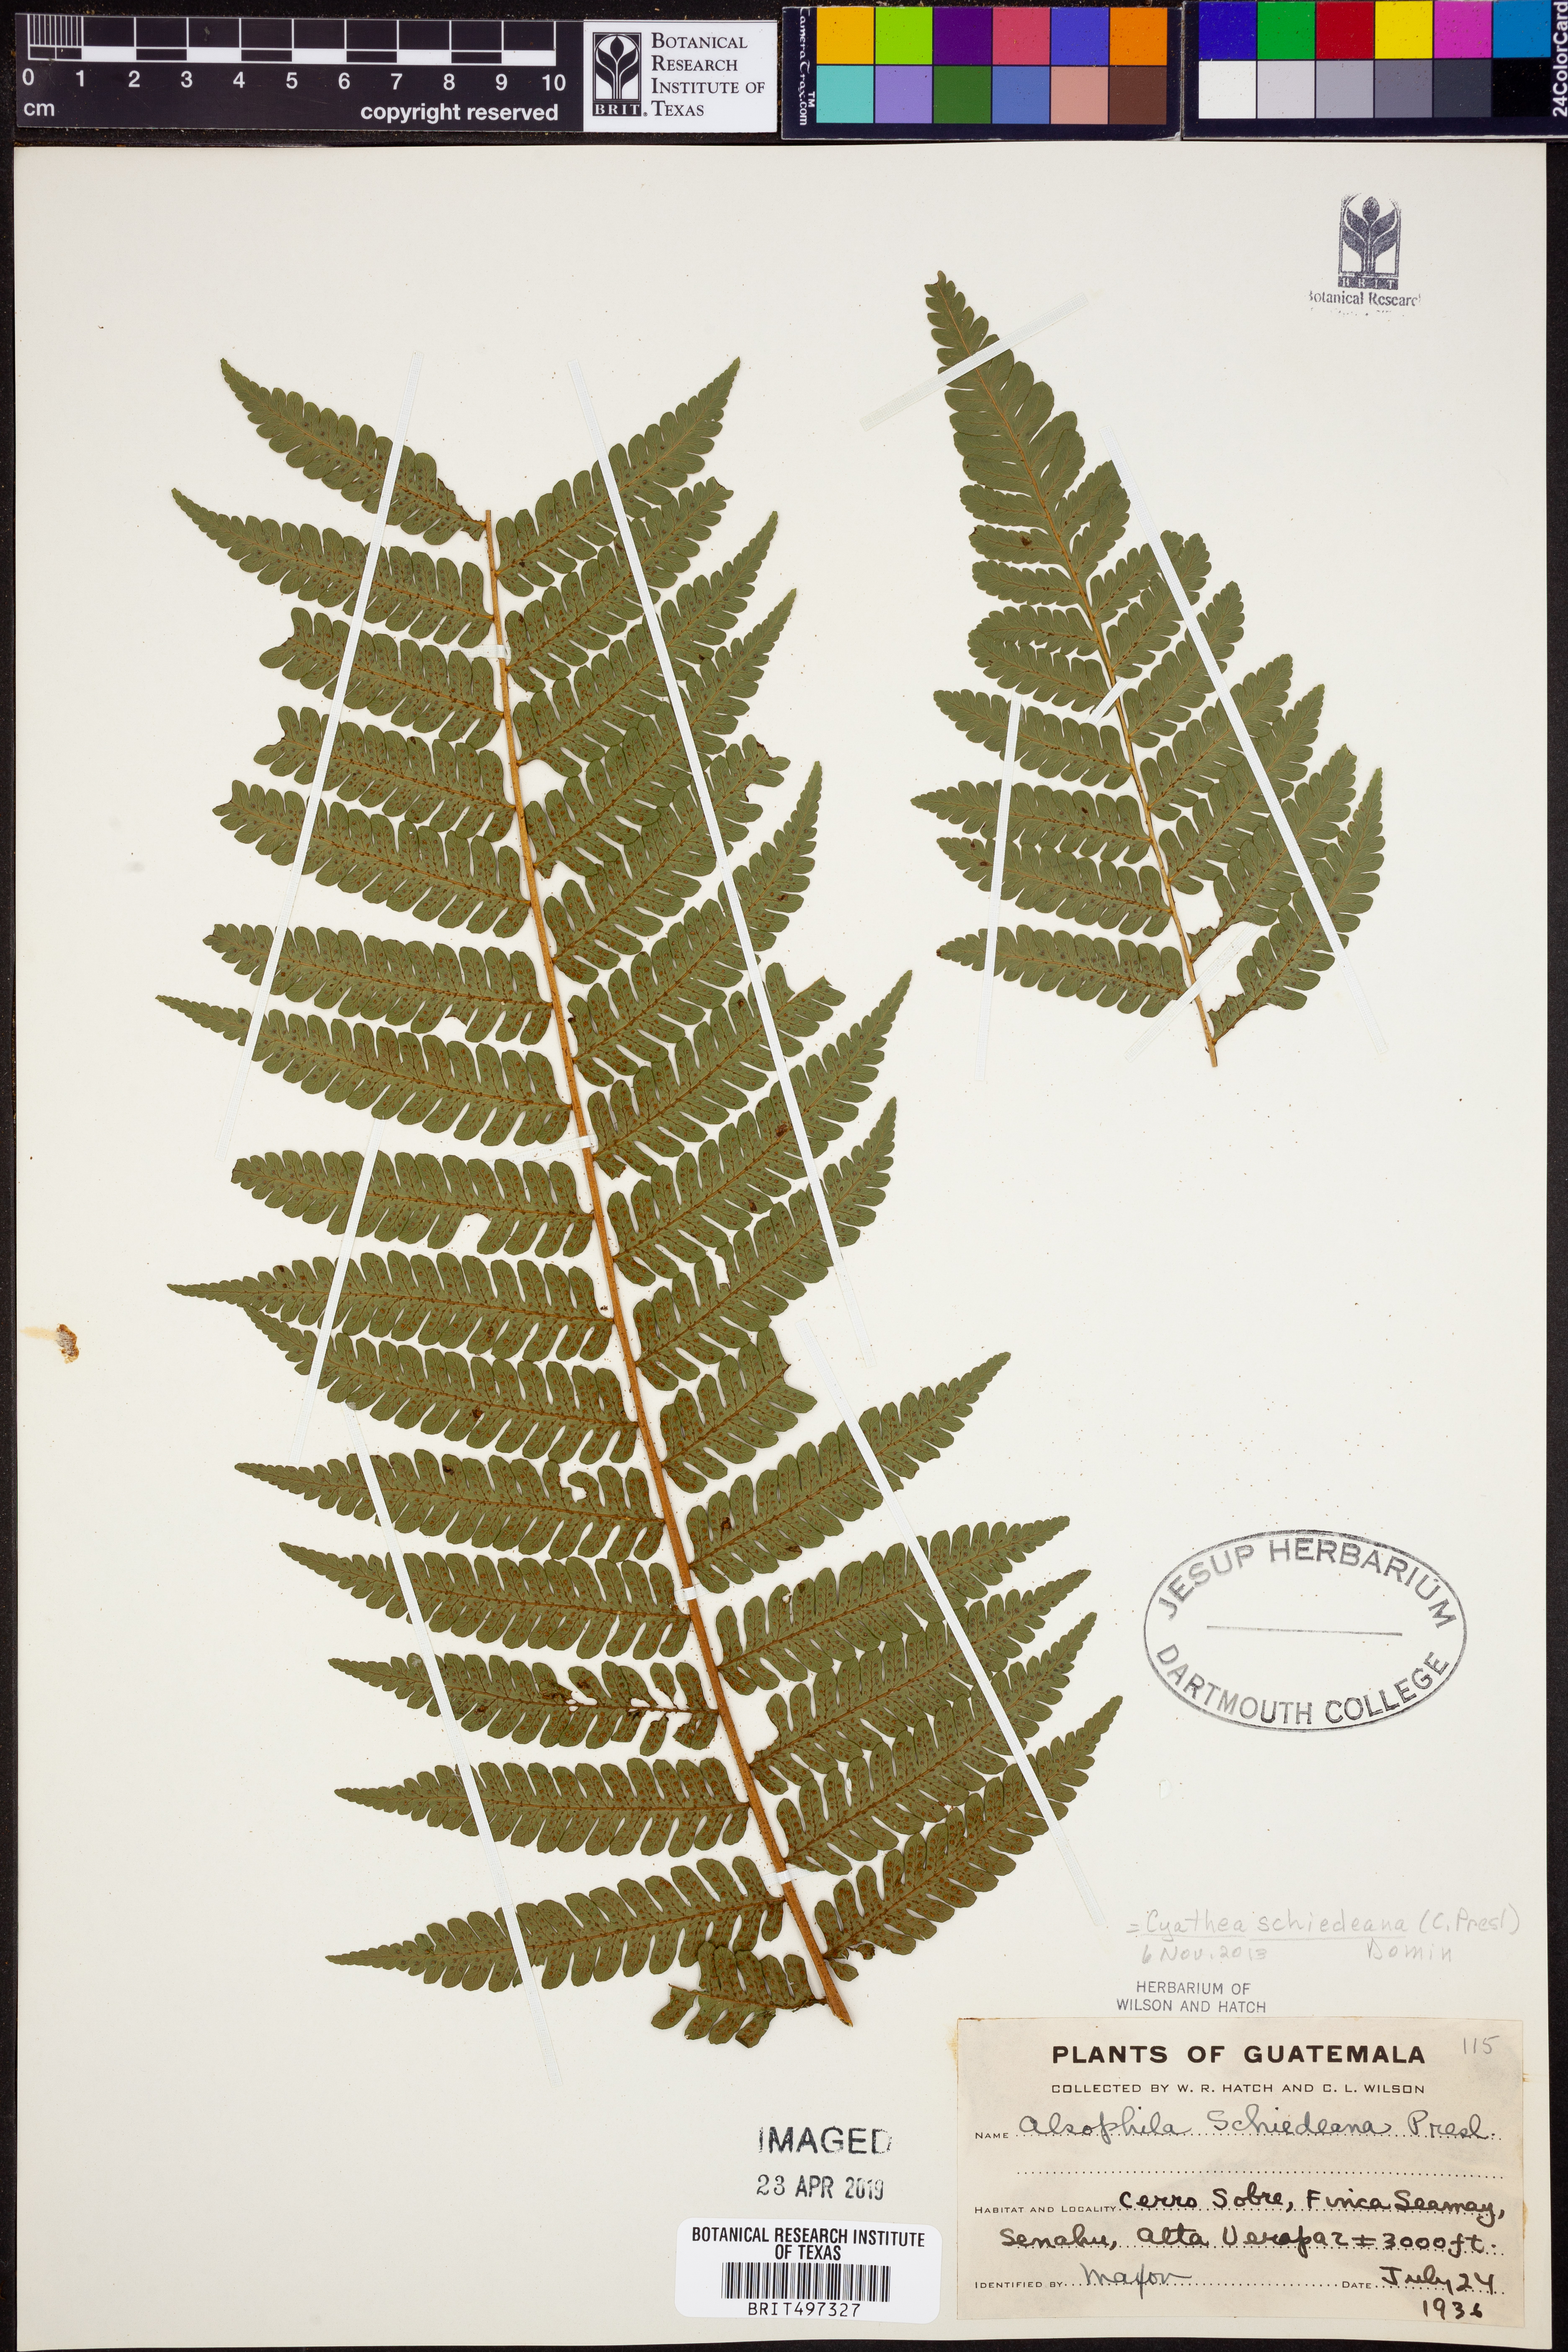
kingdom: Plantae
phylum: Tracheophyta
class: Polypodiopsida
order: Cyatheales
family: Cyatheaceae
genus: Cyathea
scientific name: Cyathea schiedeana
